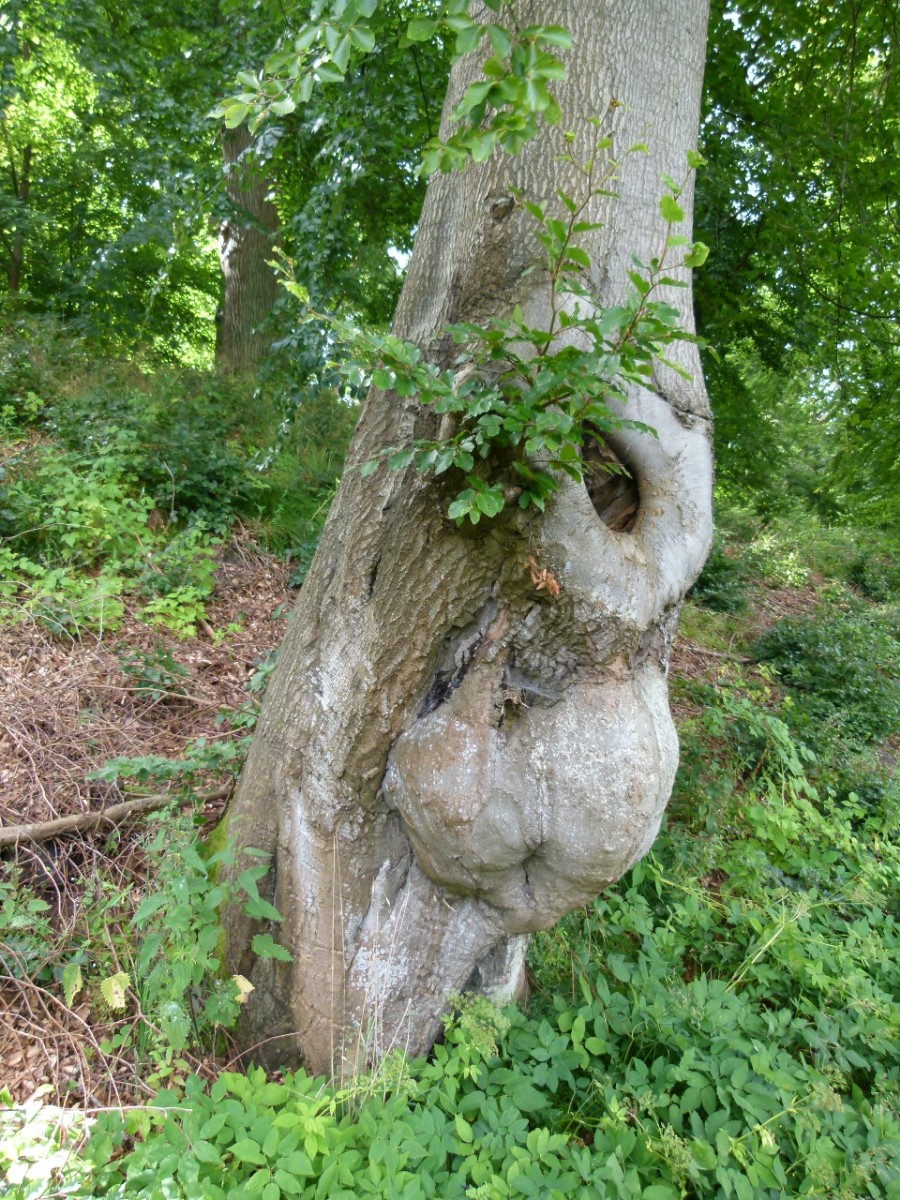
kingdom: Fungi
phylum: Ascomycota
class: Sordariomycetes
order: Xylariales
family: Xylariaceae
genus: Kretzschmaria
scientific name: Kretzschmaria deusta
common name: stor kulsvamp
